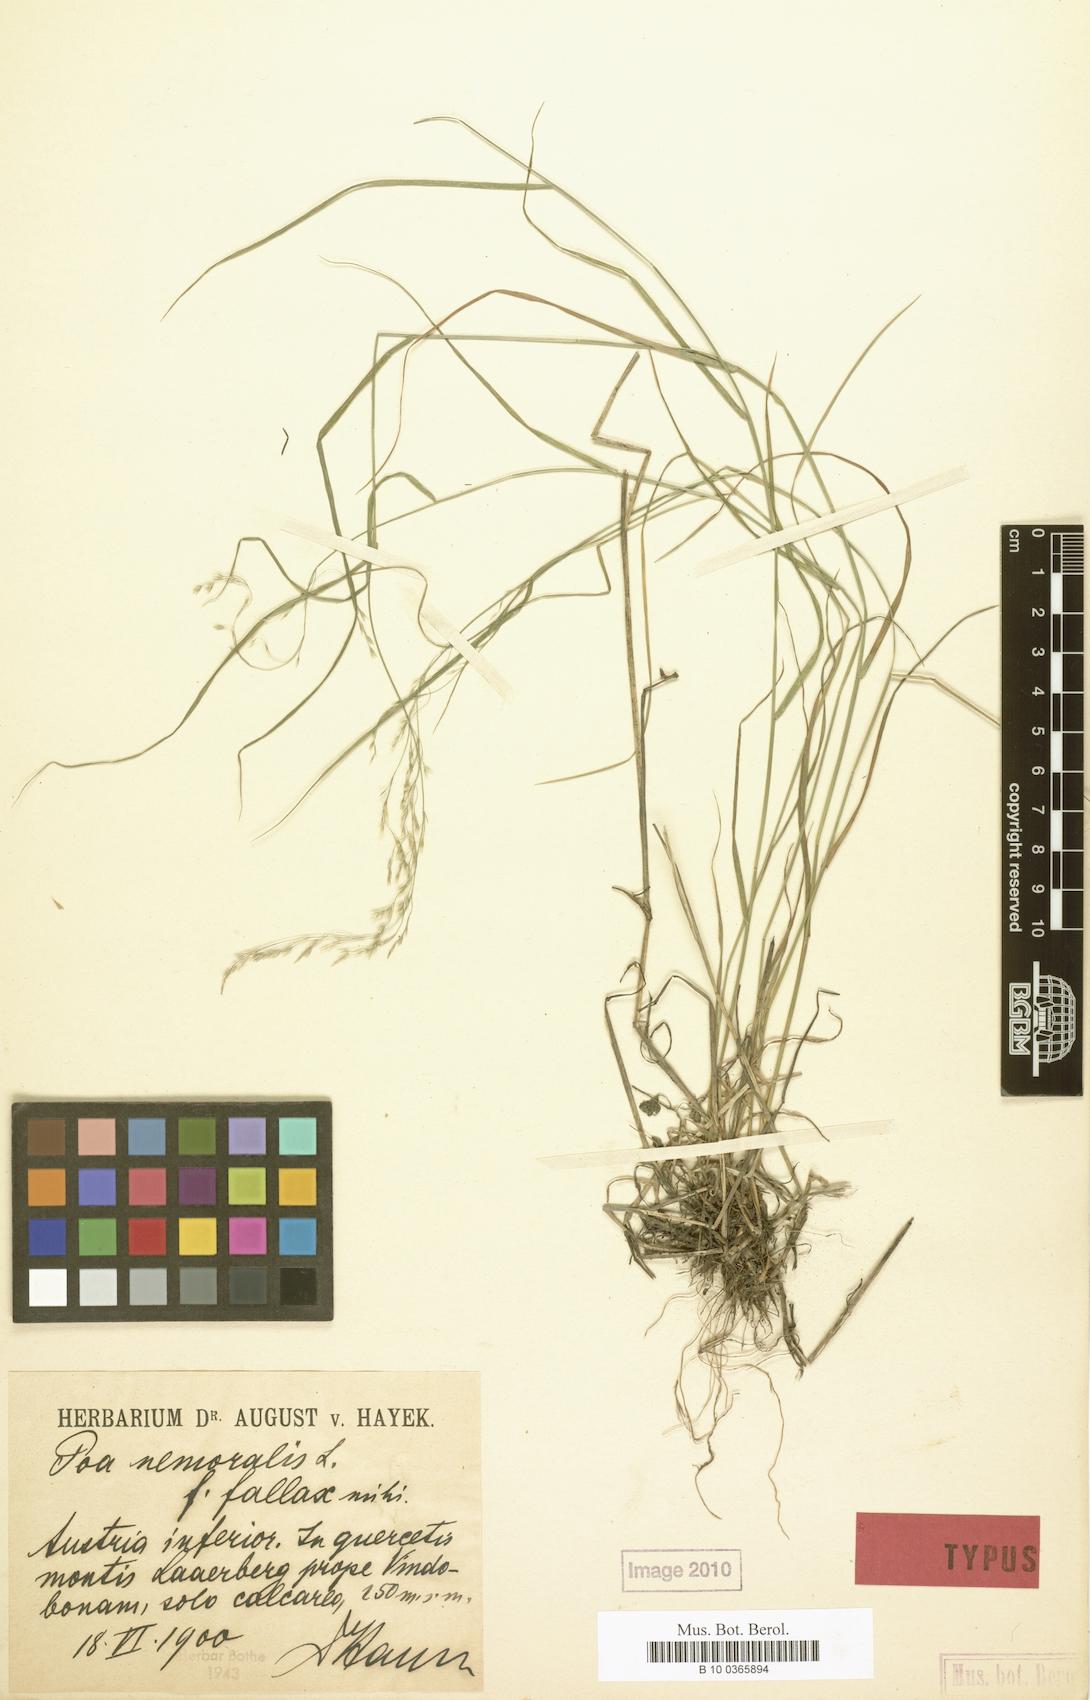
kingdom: Plantae
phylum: Tracheophyta
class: Liliopsida
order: Poales
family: Poaceae
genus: Poa
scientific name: Poa nemoralis
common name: Wood bluegrass
